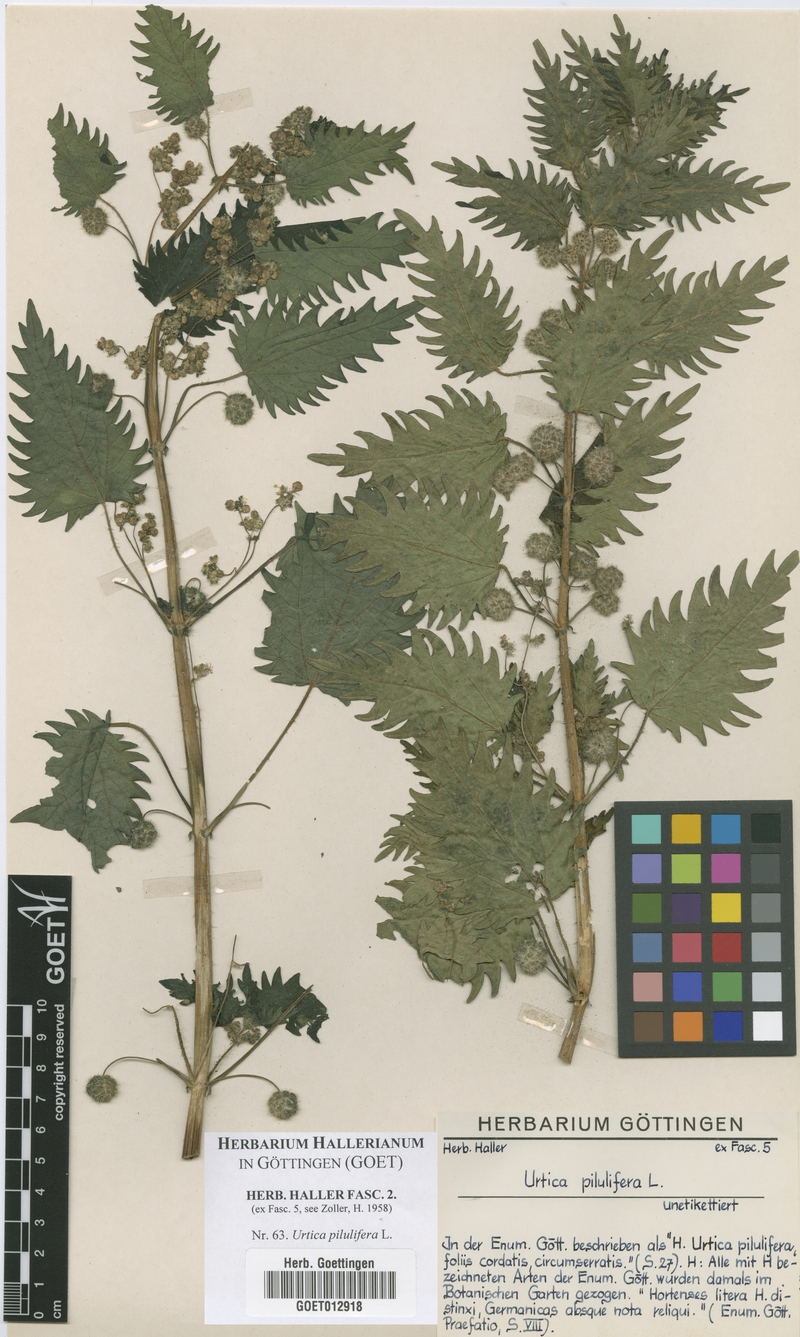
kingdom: Plantae
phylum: Tracheophyta
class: Magnoliopsida
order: Rosales
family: Urticaceae
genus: Urtica
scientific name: Urtica pilulifera
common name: Roman nettle
